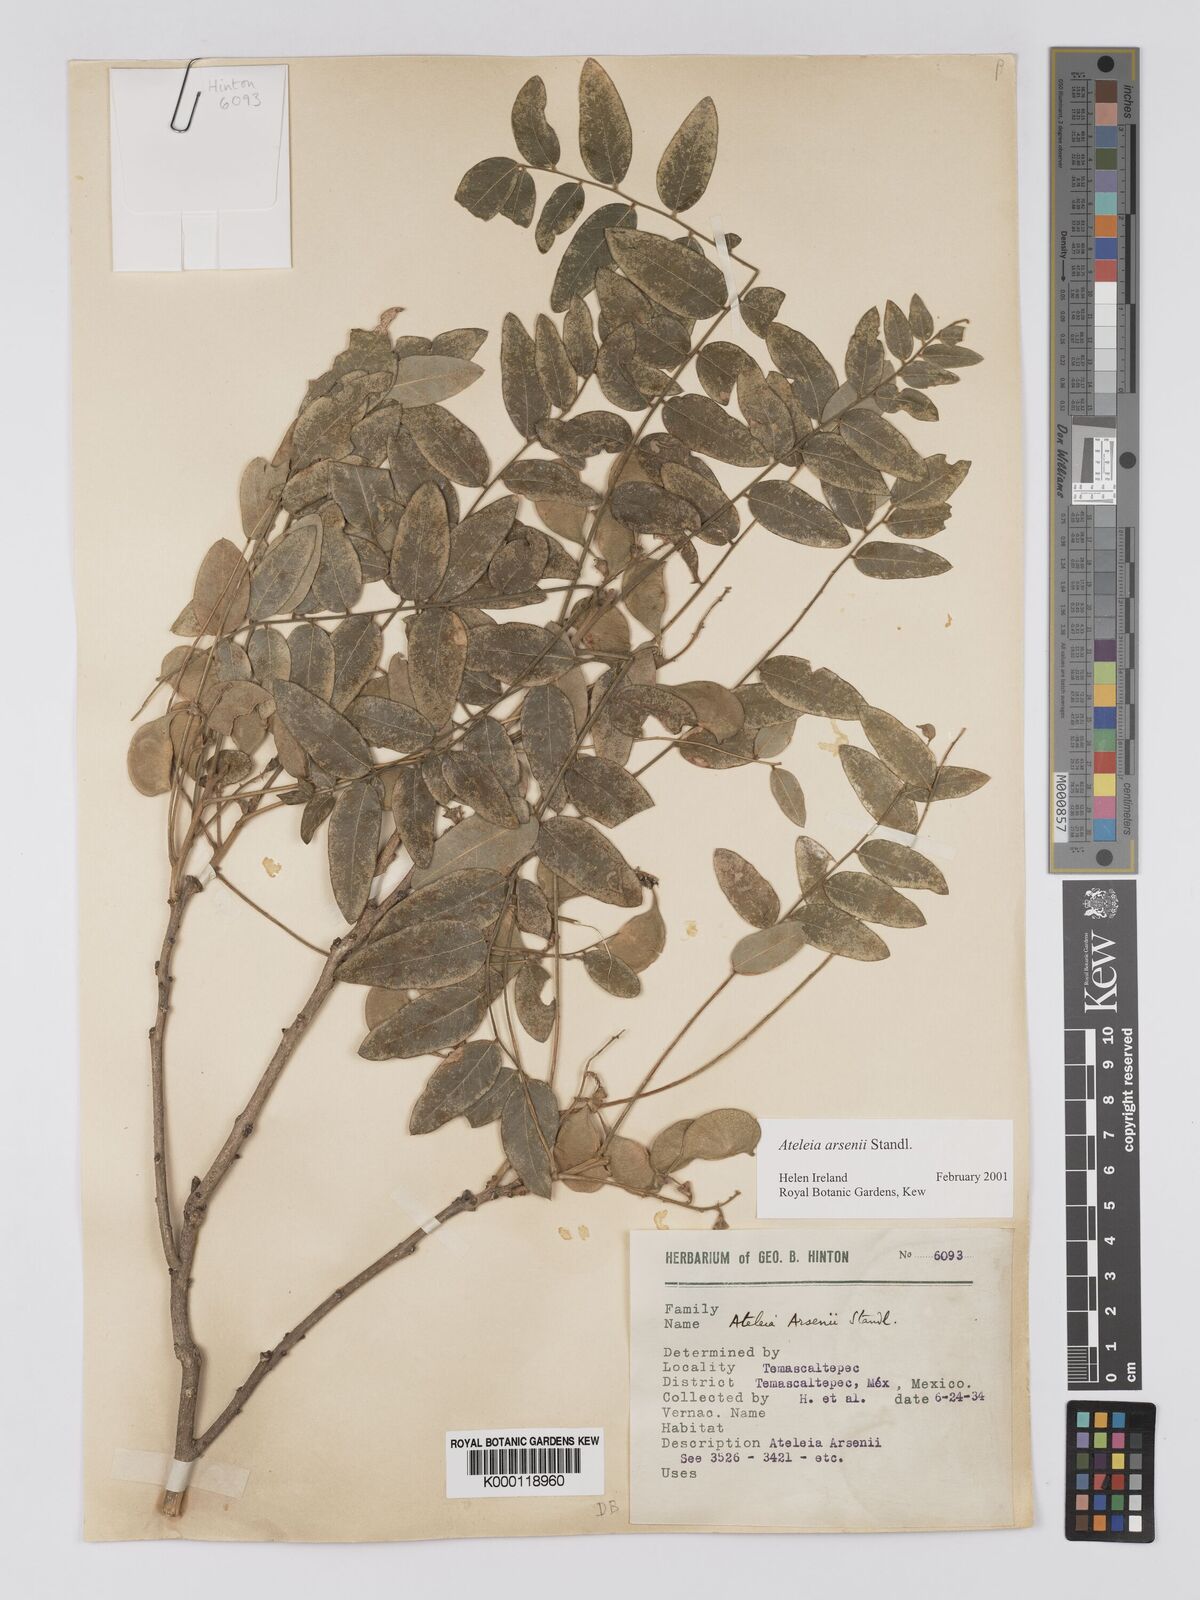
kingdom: Plantae
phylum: Tracheophyta
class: Magnoliopsida
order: Fabales
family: Fabaceae
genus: Ateleia
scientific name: Ateleia arsenii
